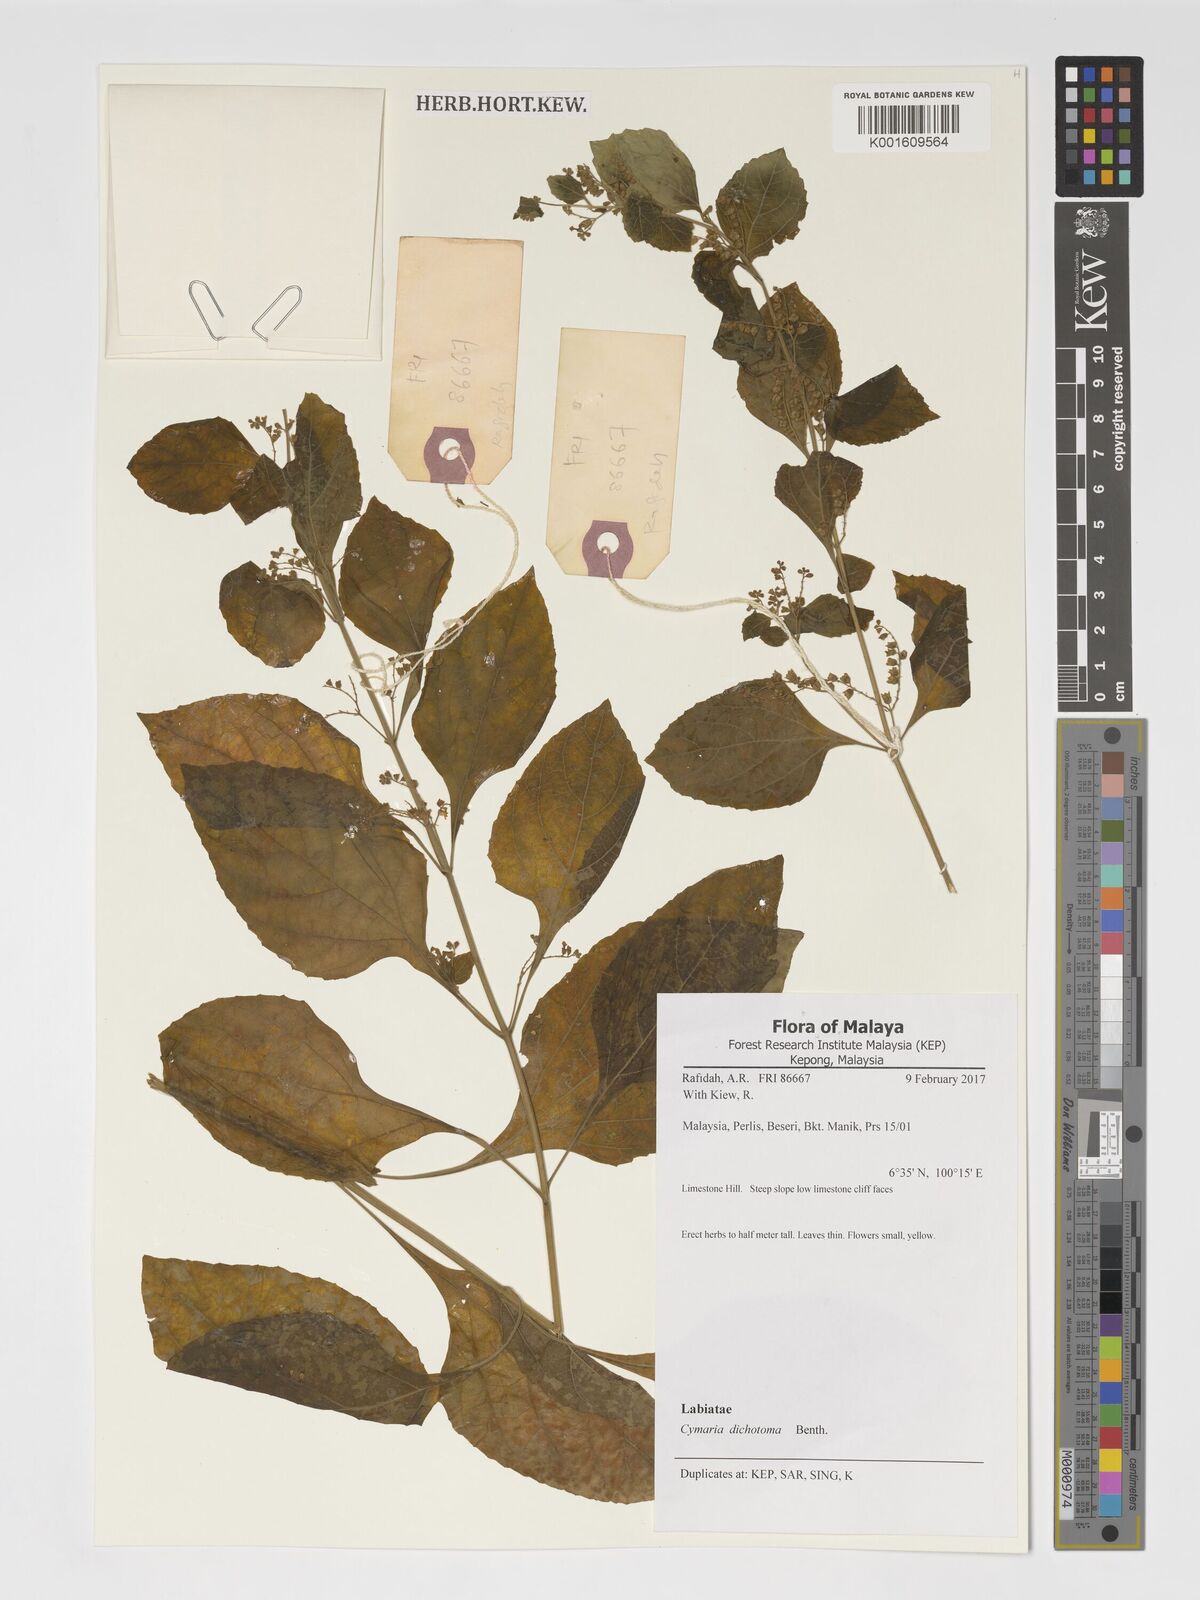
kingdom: Plantae
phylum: Tracheophyta
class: Magnoliopsida
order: Lamiales
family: Lamiaceae
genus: Cymaria
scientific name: Cymaria dichotoma
